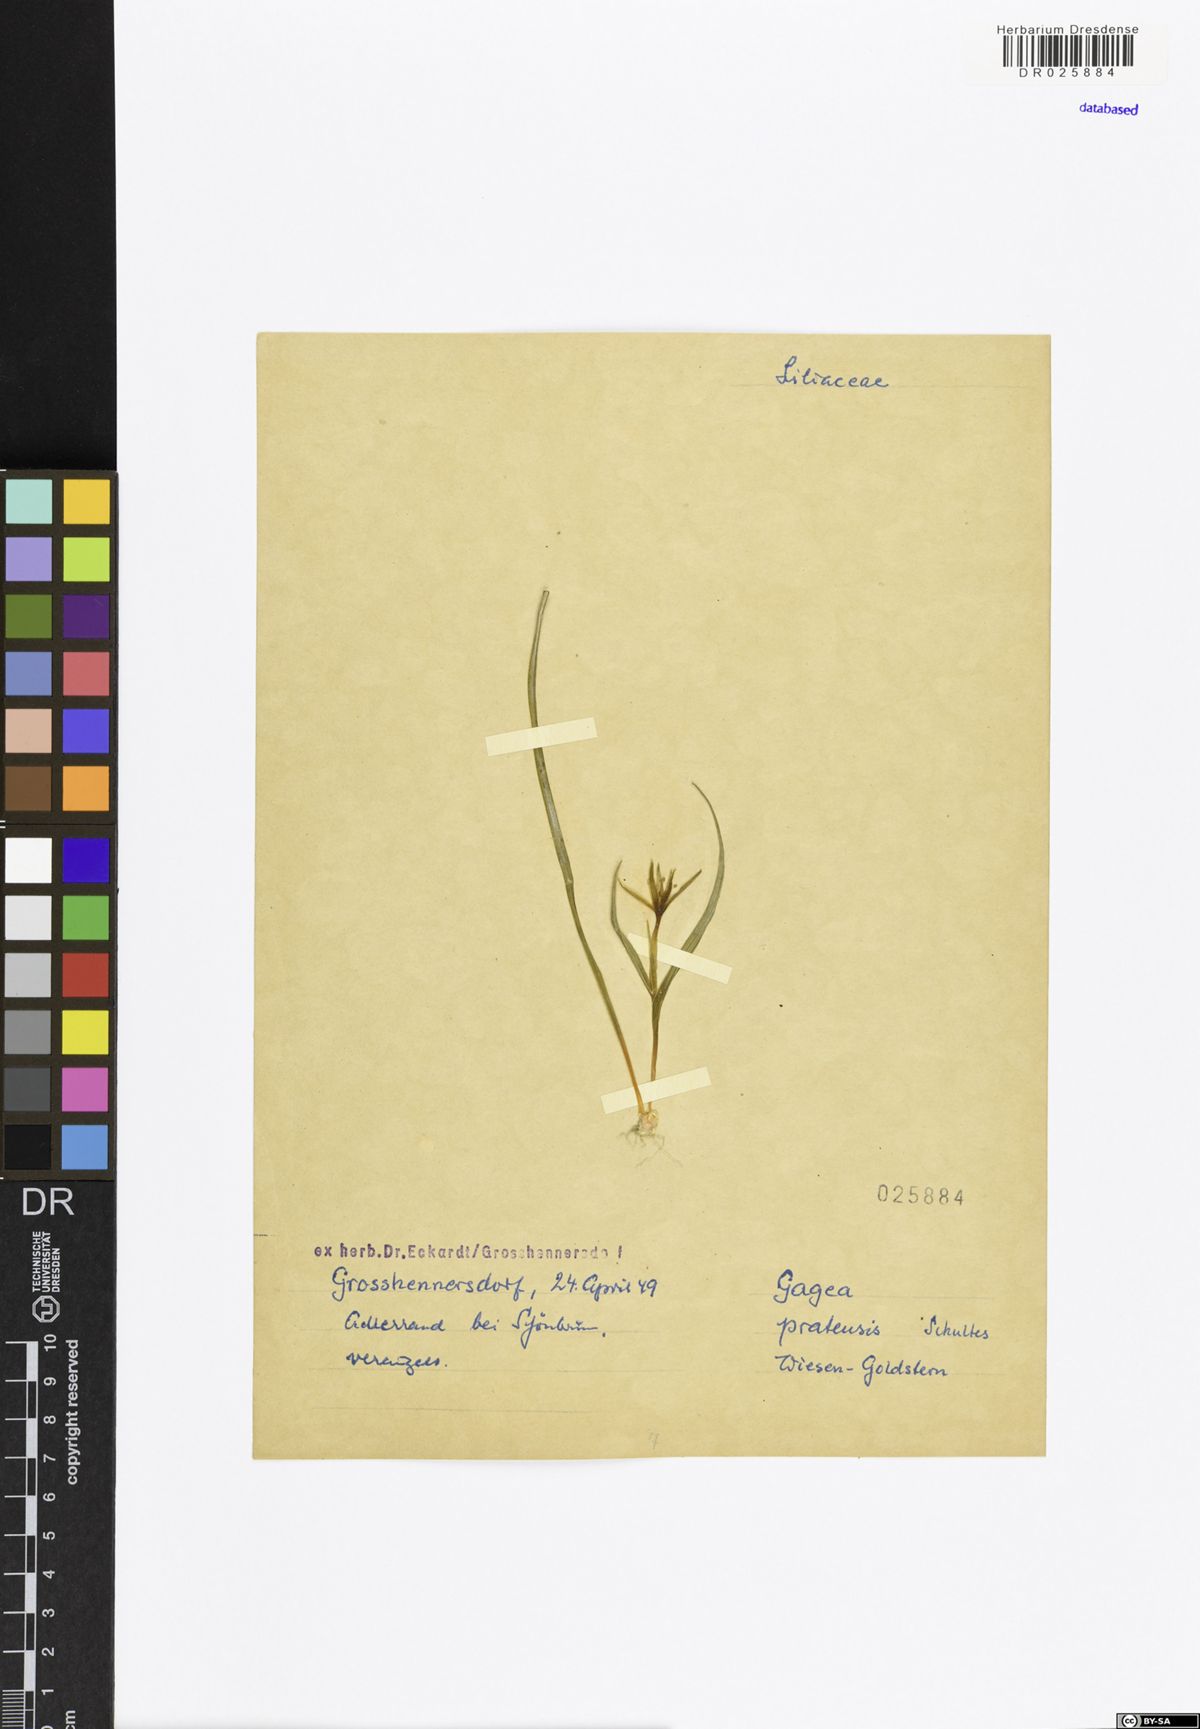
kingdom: Plantae
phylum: Tracheophyta
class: Liliopsida
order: Liliales
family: Liliaceae
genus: Gagea
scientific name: Gagea pratensis
